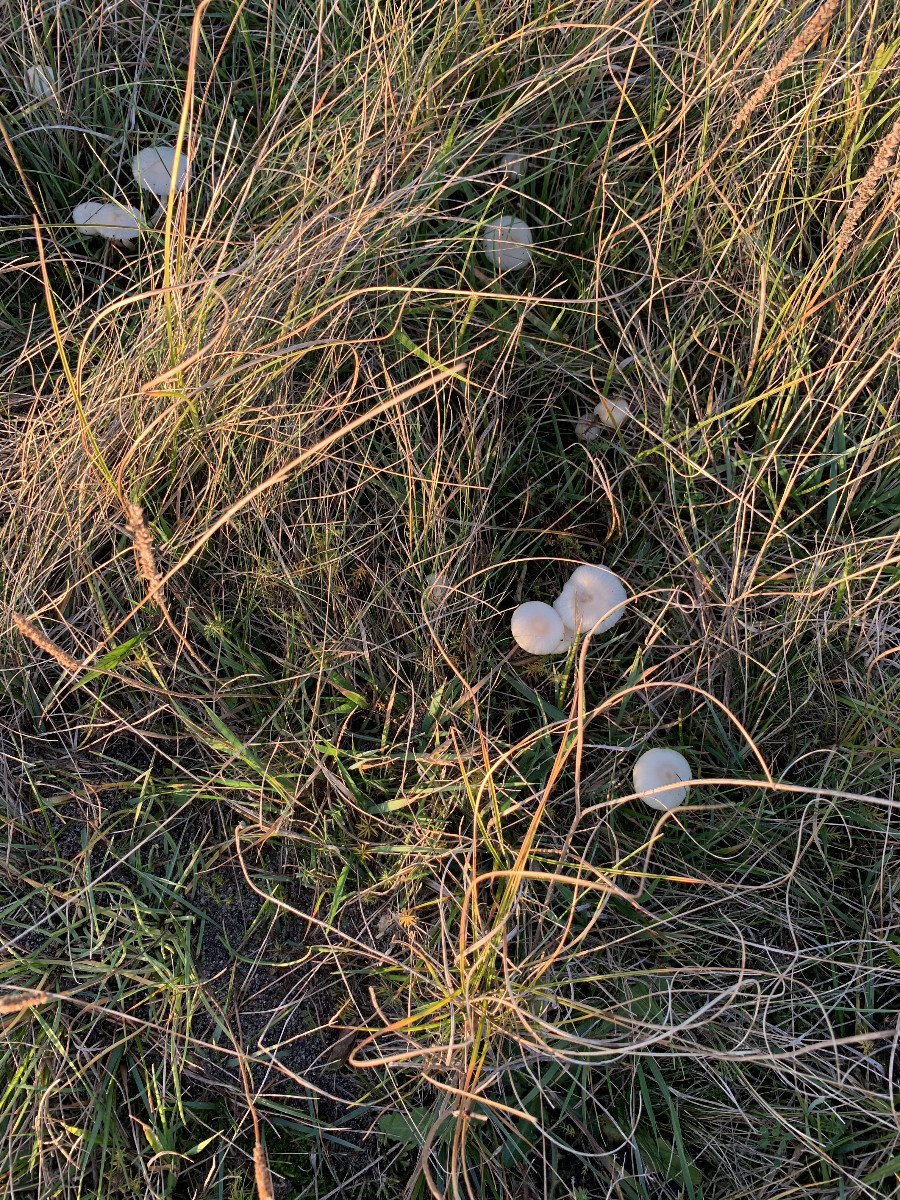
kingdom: Fungi
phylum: Basidiomycota
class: Agaricomycetes
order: Agaricales
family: Hygrophoraceae
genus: Cuphophyllus
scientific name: Cuphophyllus russocoriaceus
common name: ruslæder-vokshat
